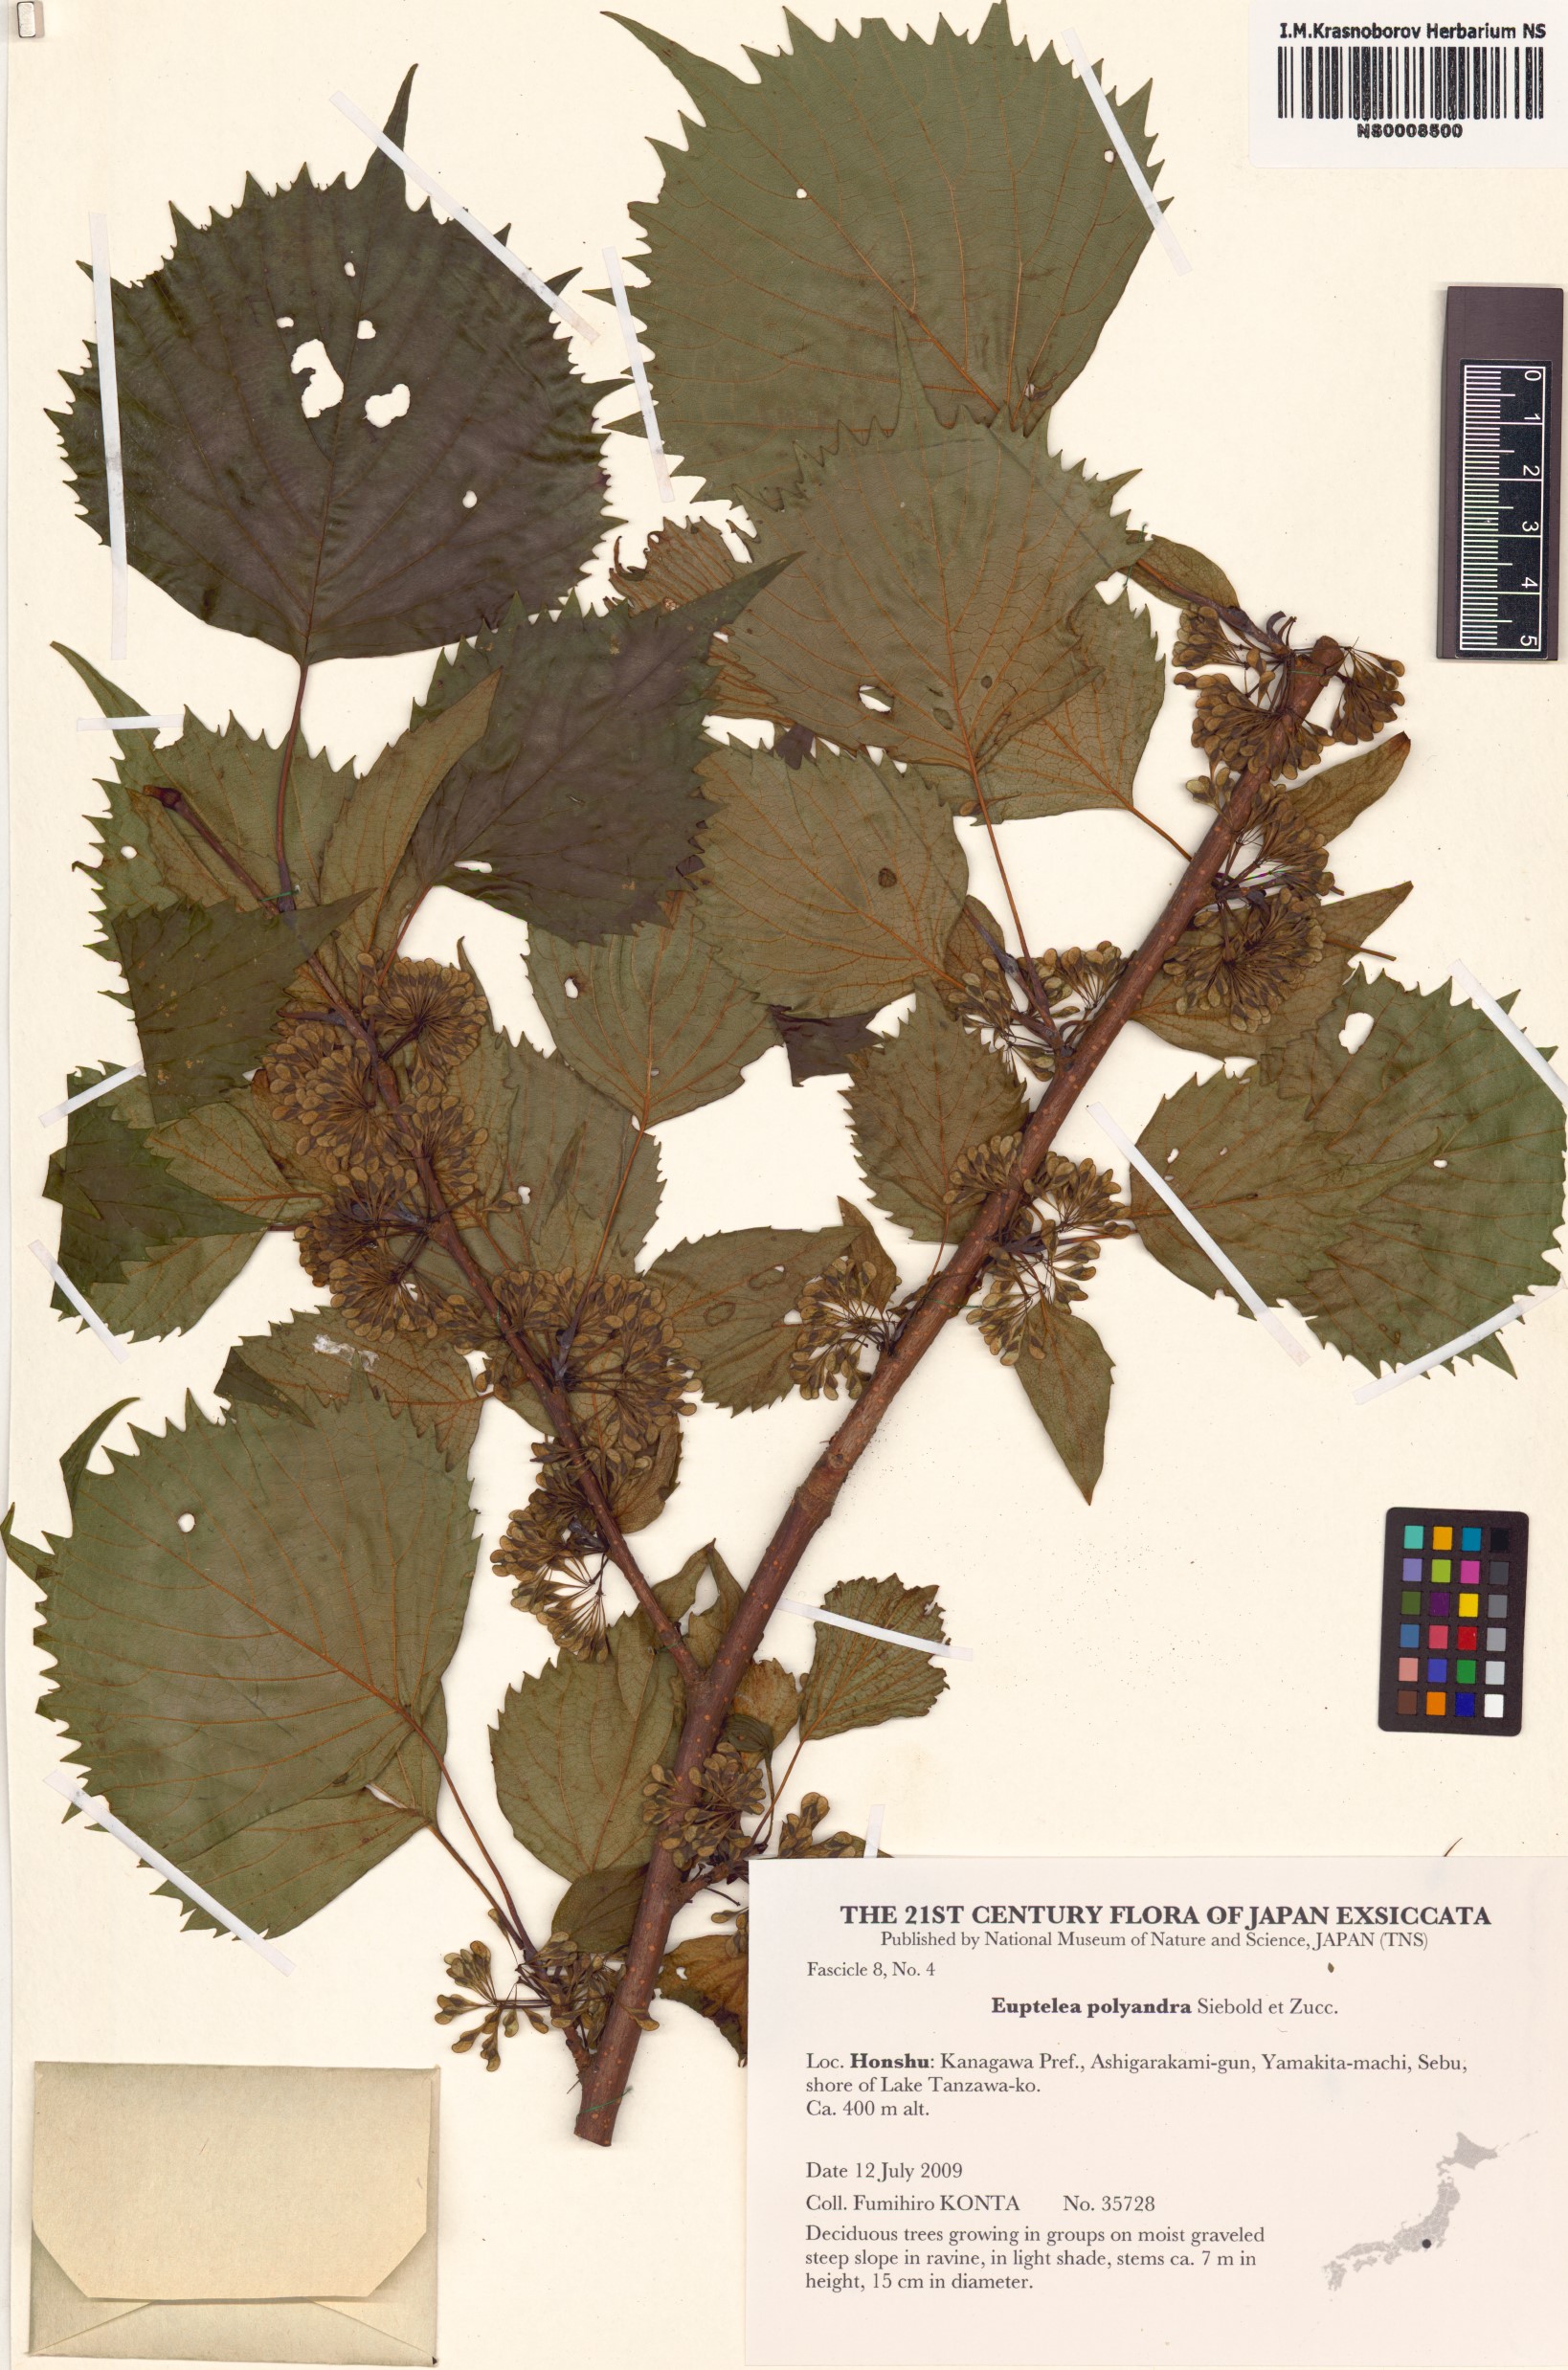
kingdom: Plantae
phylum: Tracheophyta
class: Magnoliopsida
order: Ranunculales
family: Eupteleaceae
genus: Euptelea
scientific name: Euptelea polyandra
